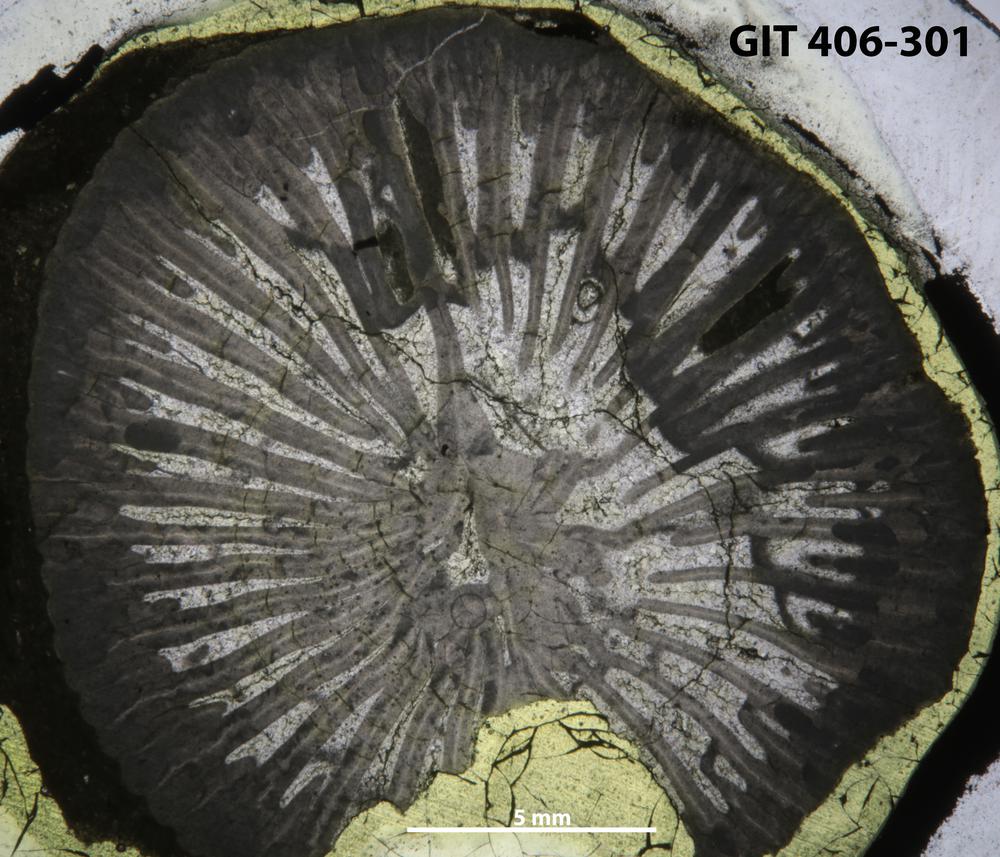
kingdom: Animalia
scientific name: Animalia
